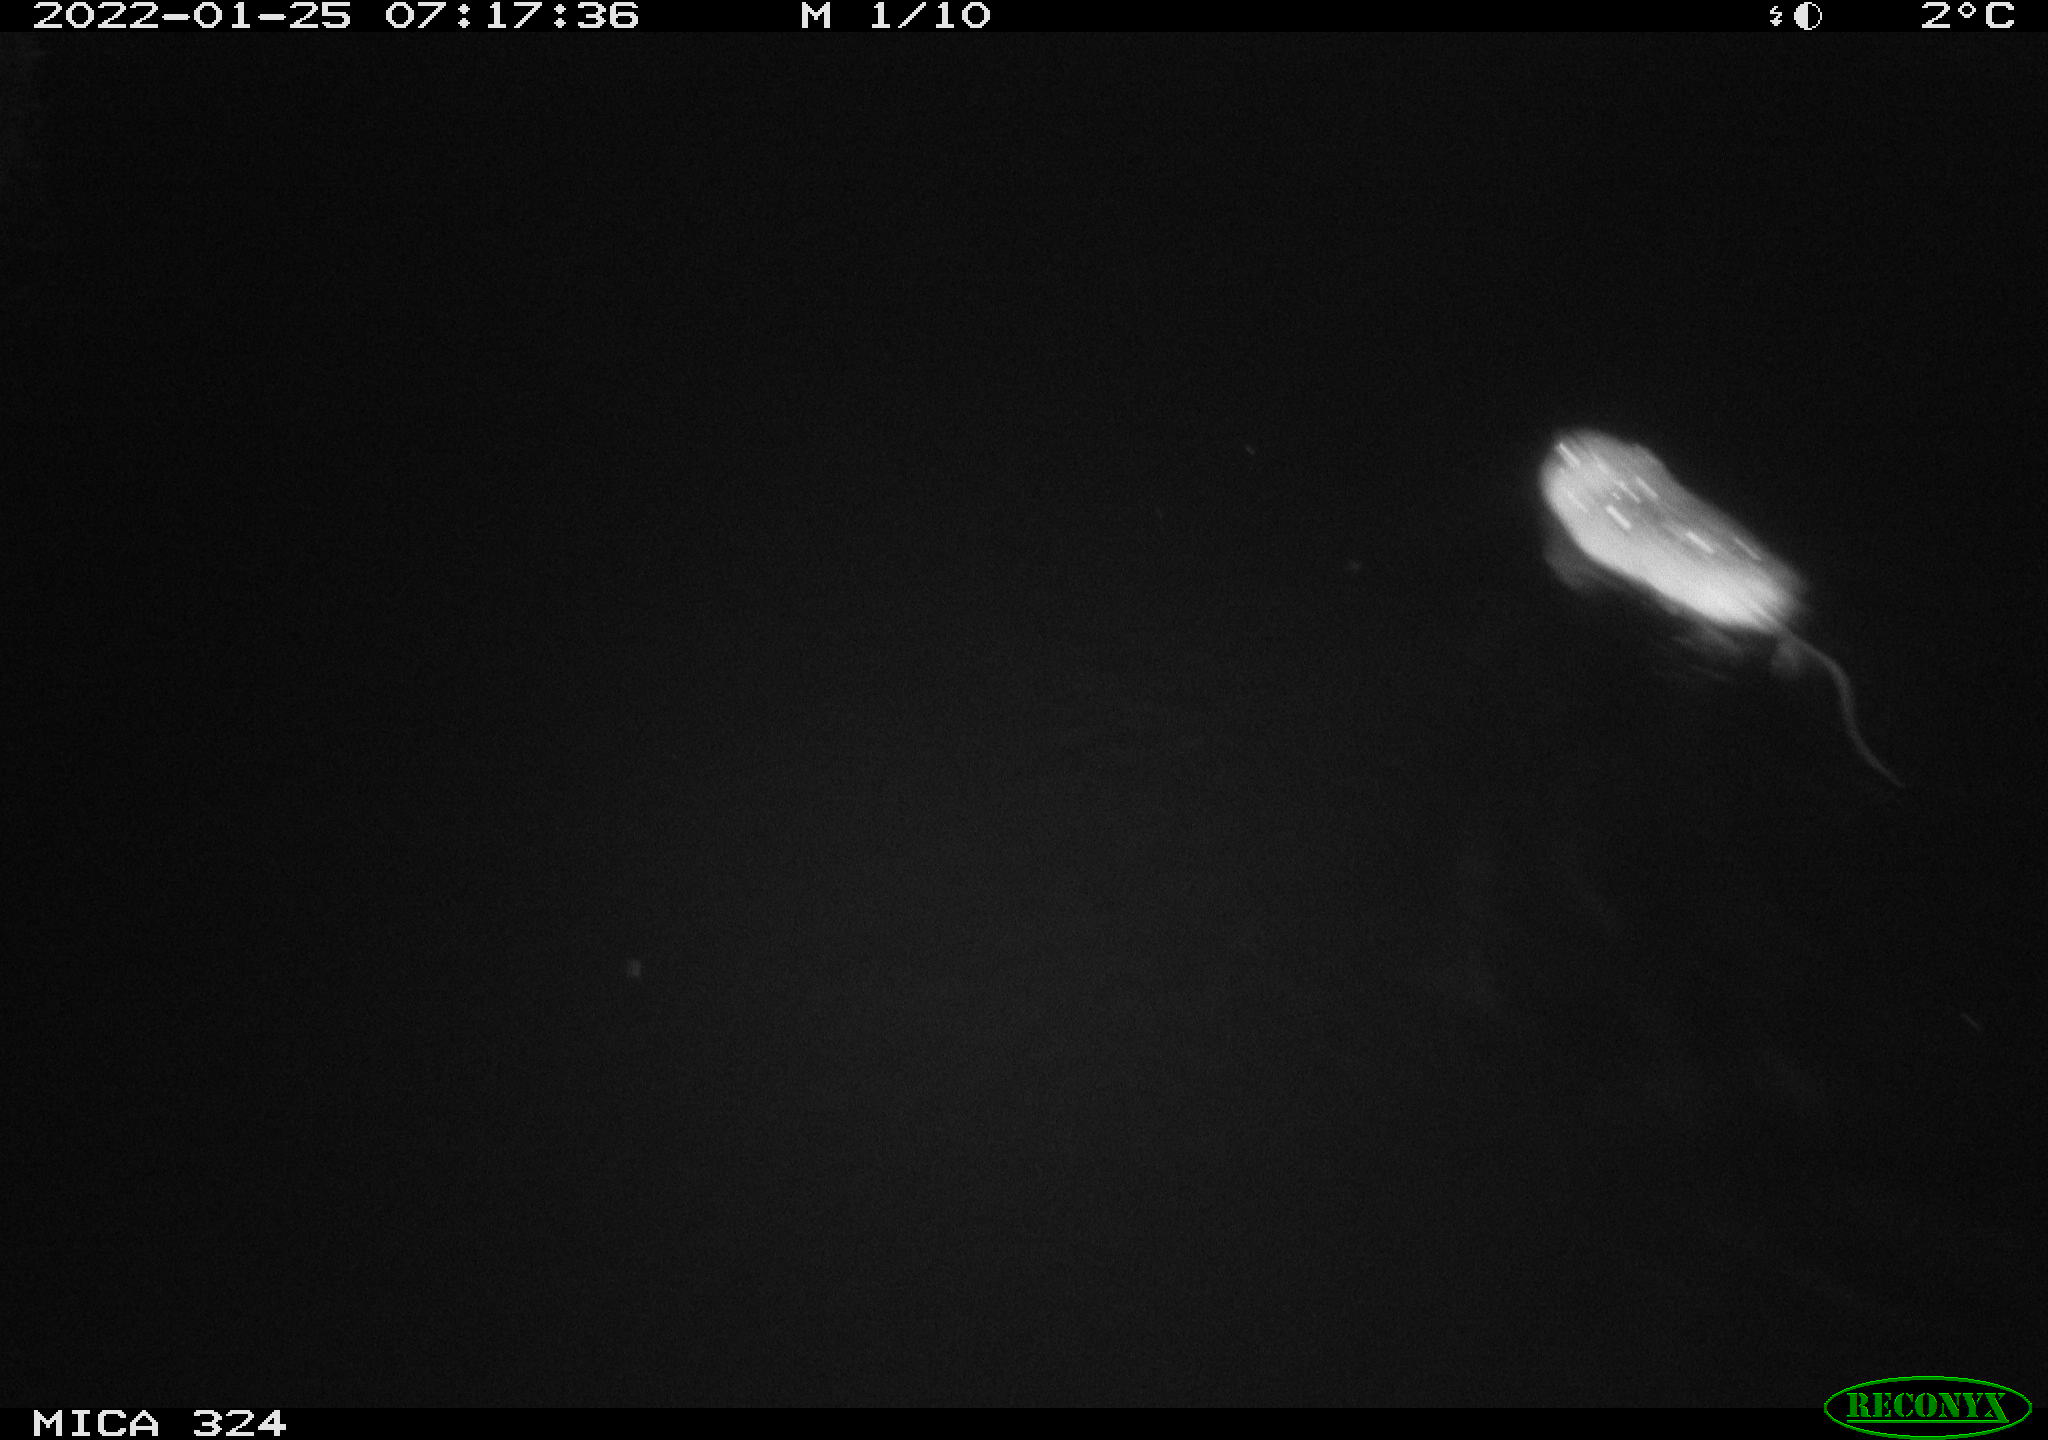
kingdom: Animalia
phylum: Chordata
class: Mammalia
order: Rodentia
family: Cricetidae
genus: Ondatra
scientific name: Ondatra zibethicus
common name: Muskrat
